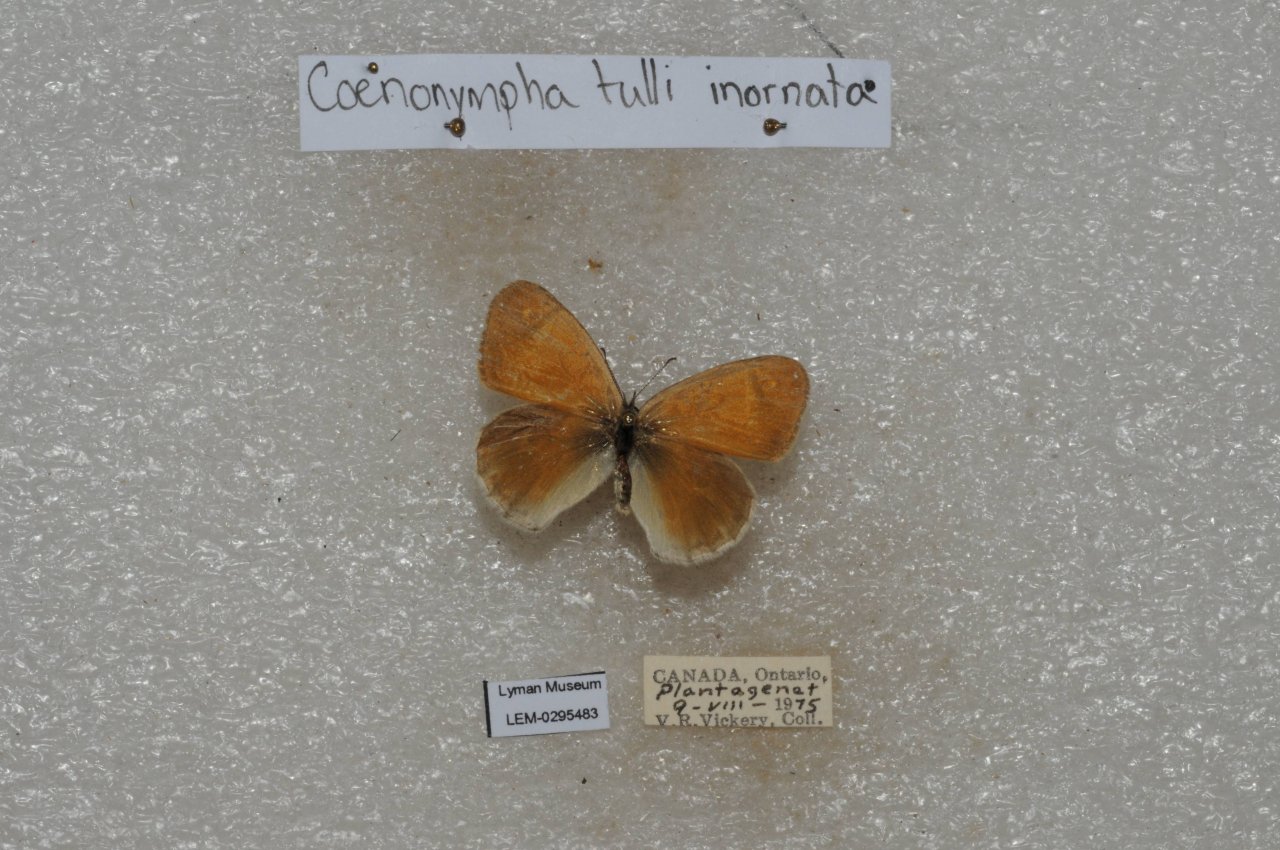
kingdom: Animalia
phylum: Arthropoda
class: Insecta
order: Lepidoptera
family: Nymphalidae
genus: Coenonympha
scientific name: Coenonympha tullia
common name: Large Heath
